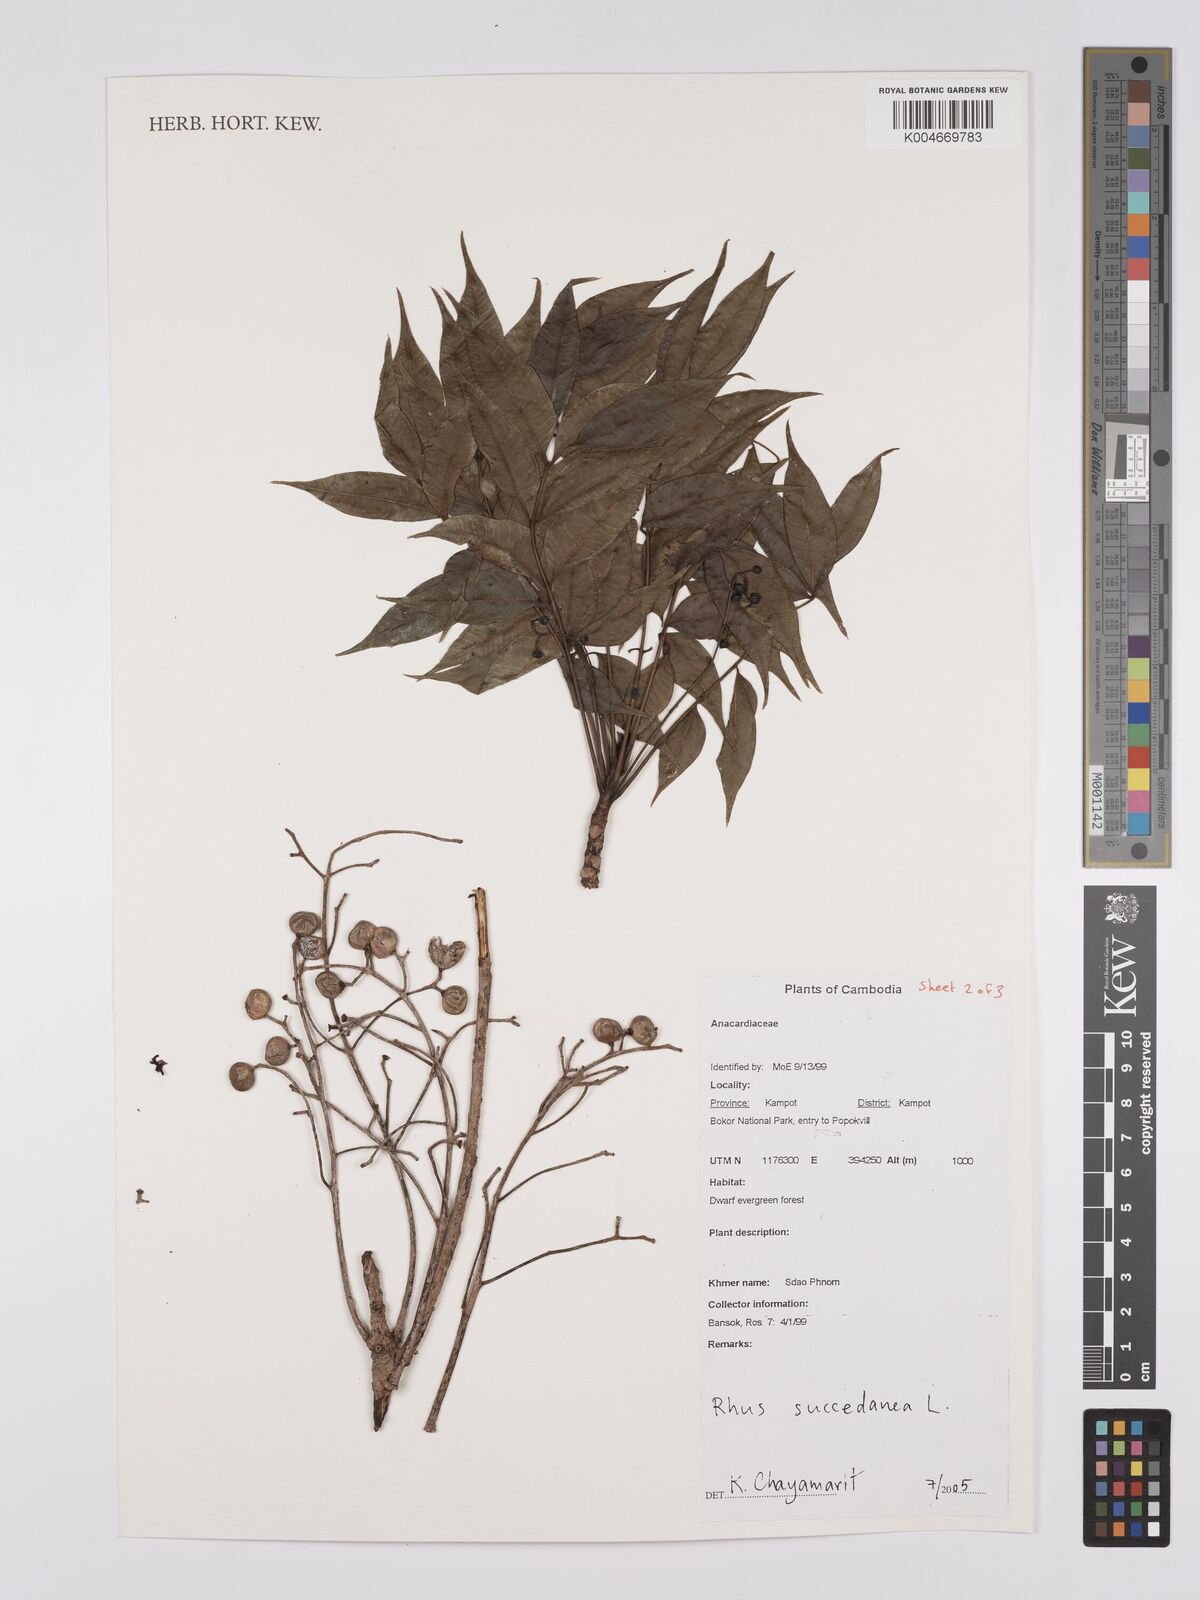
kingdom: Plantae
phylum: Tracheophyta
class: Magnoliopsida
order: Sapindales
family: Anacardiaceae
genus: Toxicodendron
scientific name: Toxicodendron succedaneum
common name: Wax tree
